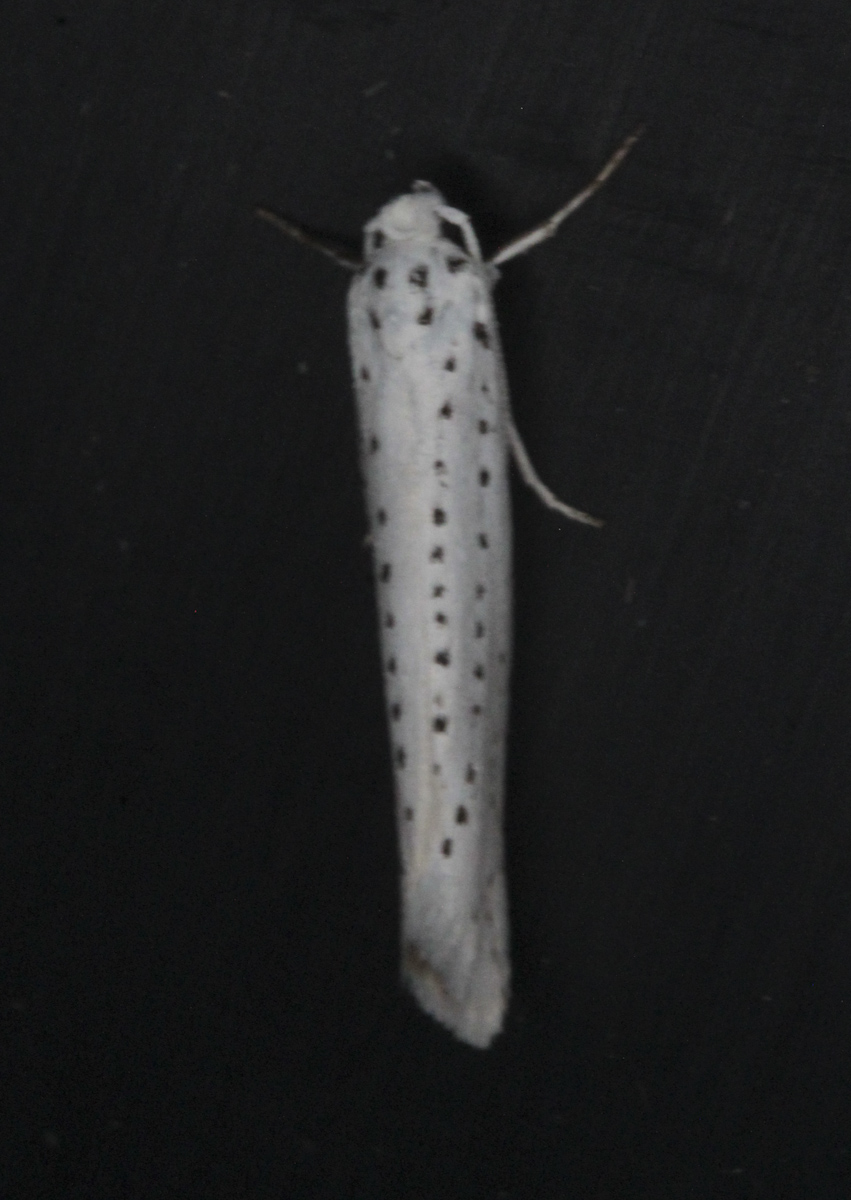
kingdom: Animalia
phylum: Arthropoda
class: Insecta
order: Lepidoptera
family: Yponomeutidae
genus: Yponomeuta
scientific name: Yponomeuta evonymella
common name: Bird-cherry ermine
